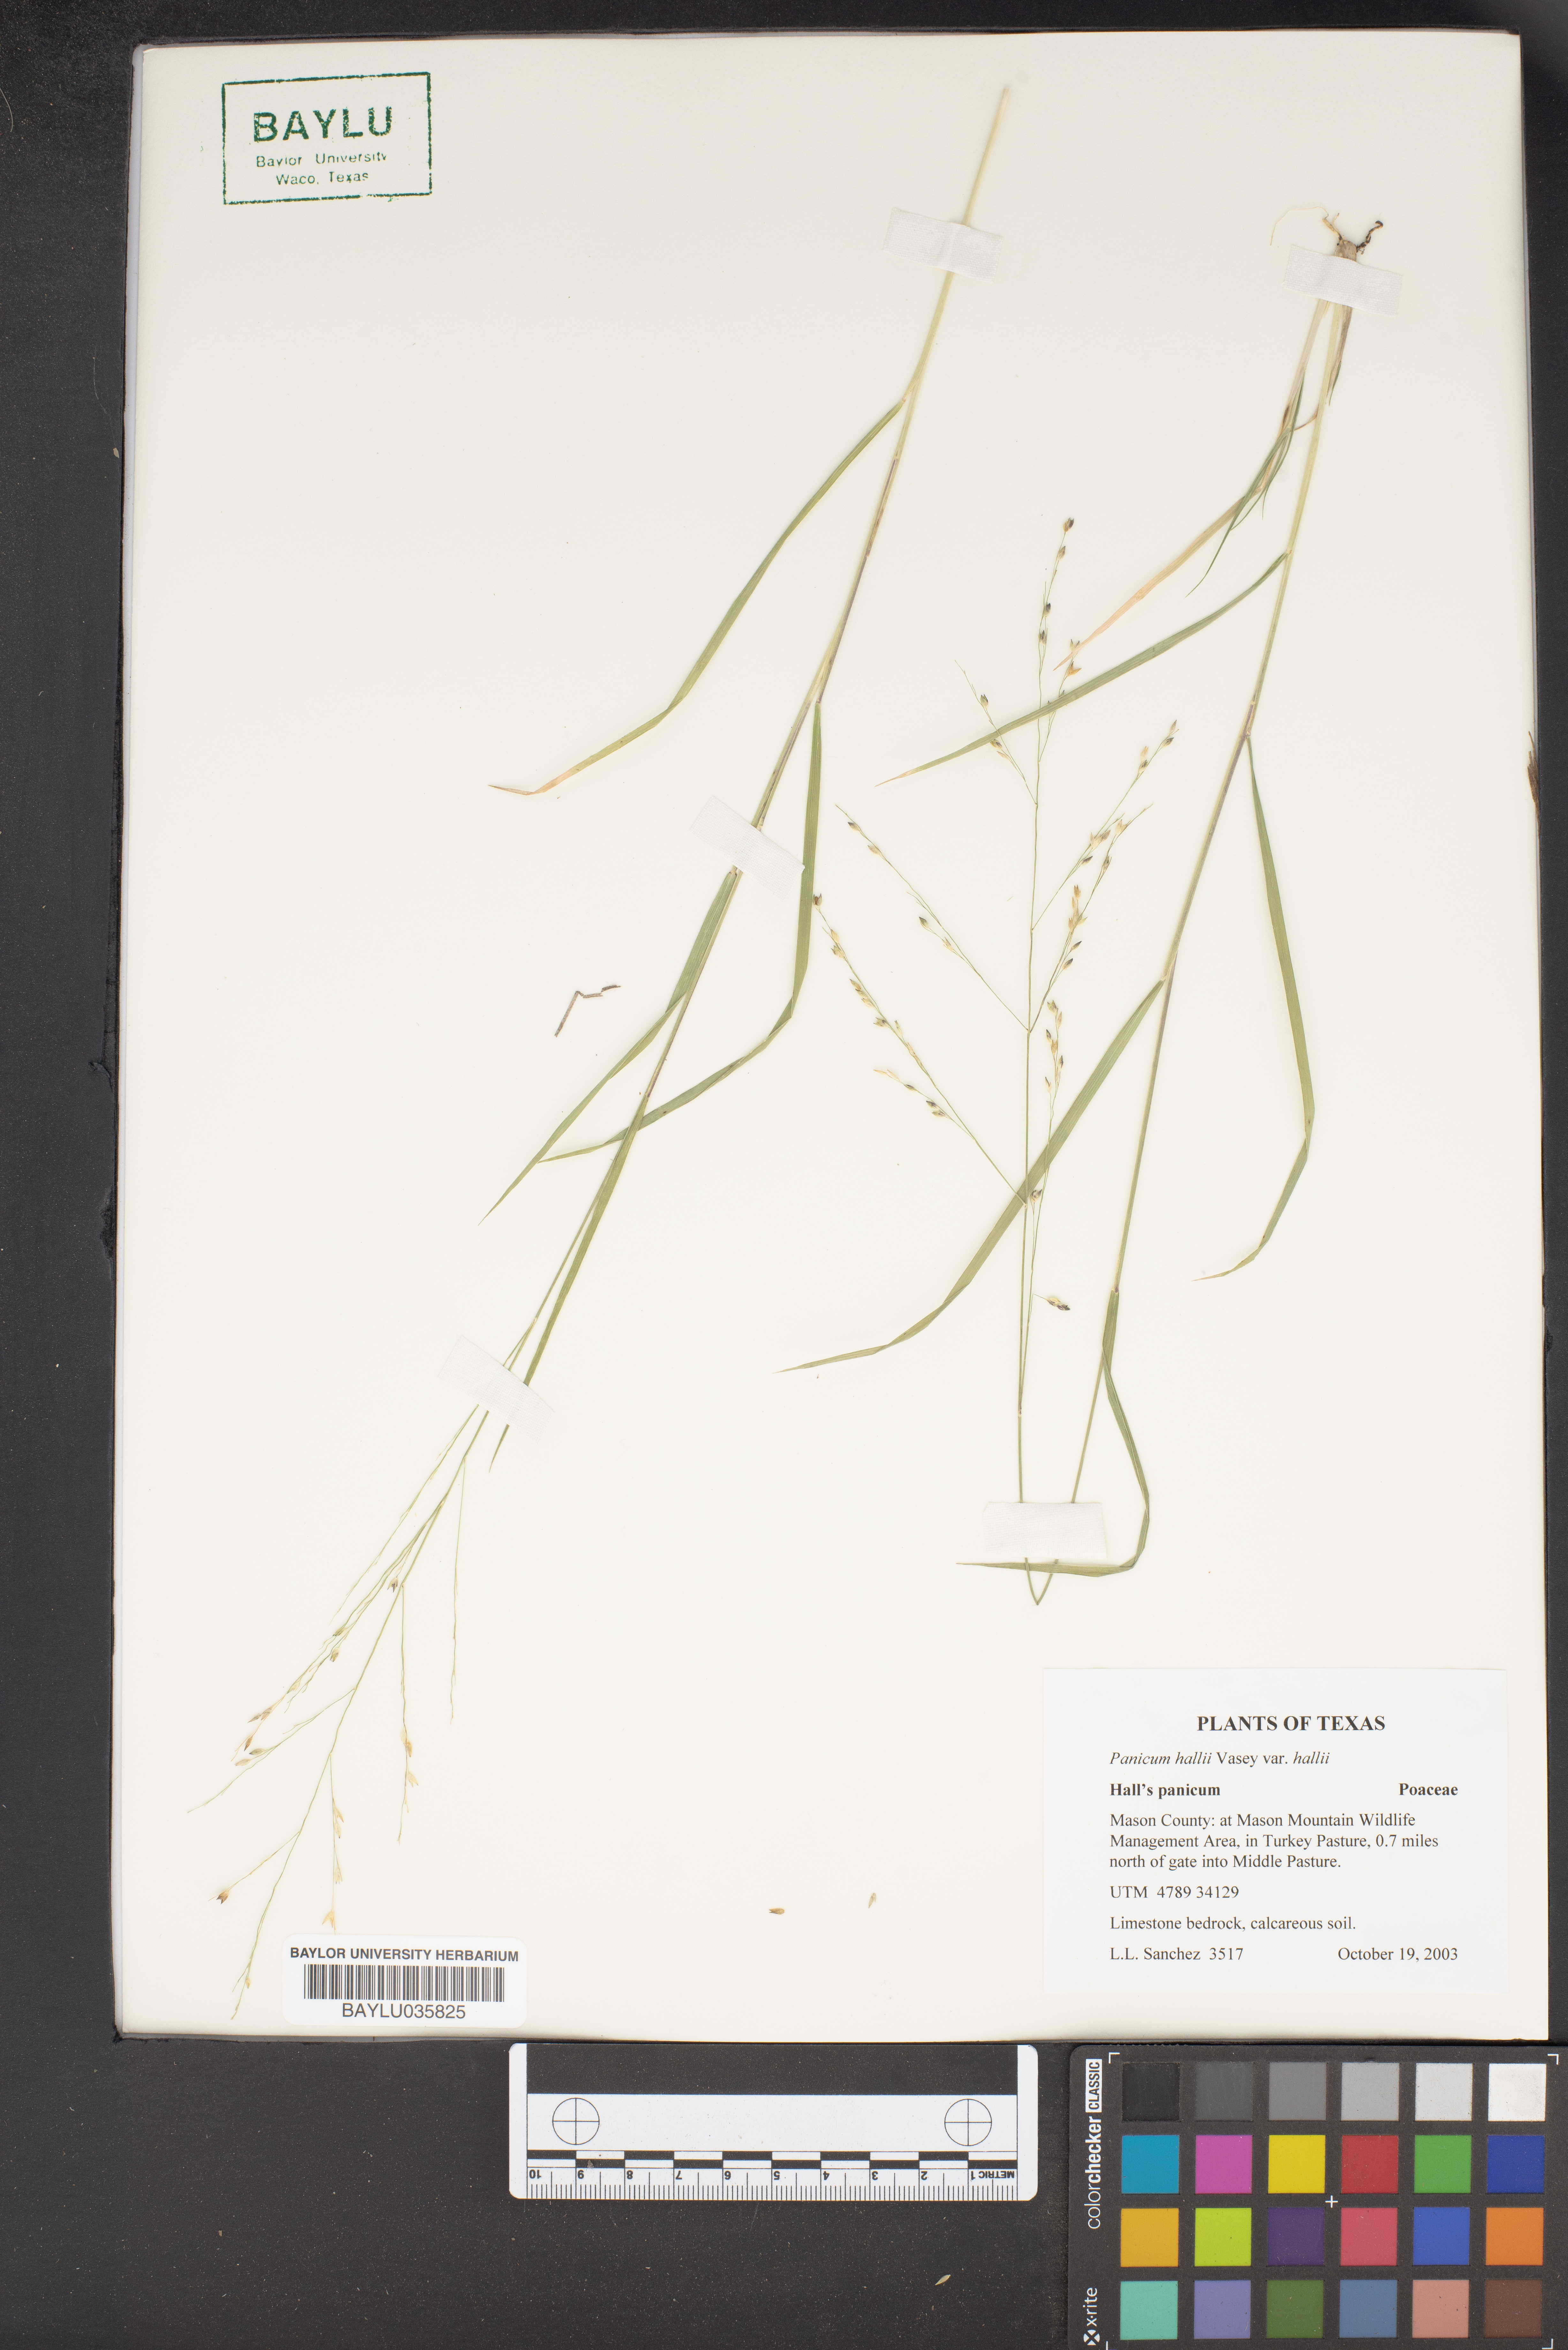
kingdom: Plantae
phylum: Tracheophyta
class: Liliopsida
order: Poales
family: Poaceae
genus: Panicum
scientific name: Panicum hallii
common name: Hall's witchgrass
